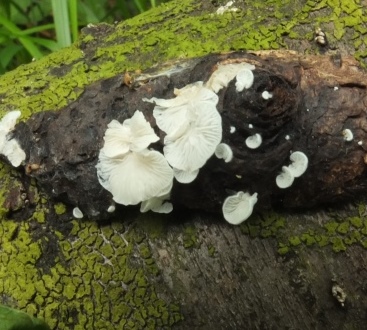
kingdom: Fungi
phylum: Basidiomycota
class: Agaricomycetes
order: Agaricales
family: Entolomataceae
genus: Clitopilus
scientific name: Clitopilus hobsonii
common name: Miller's oysterling
